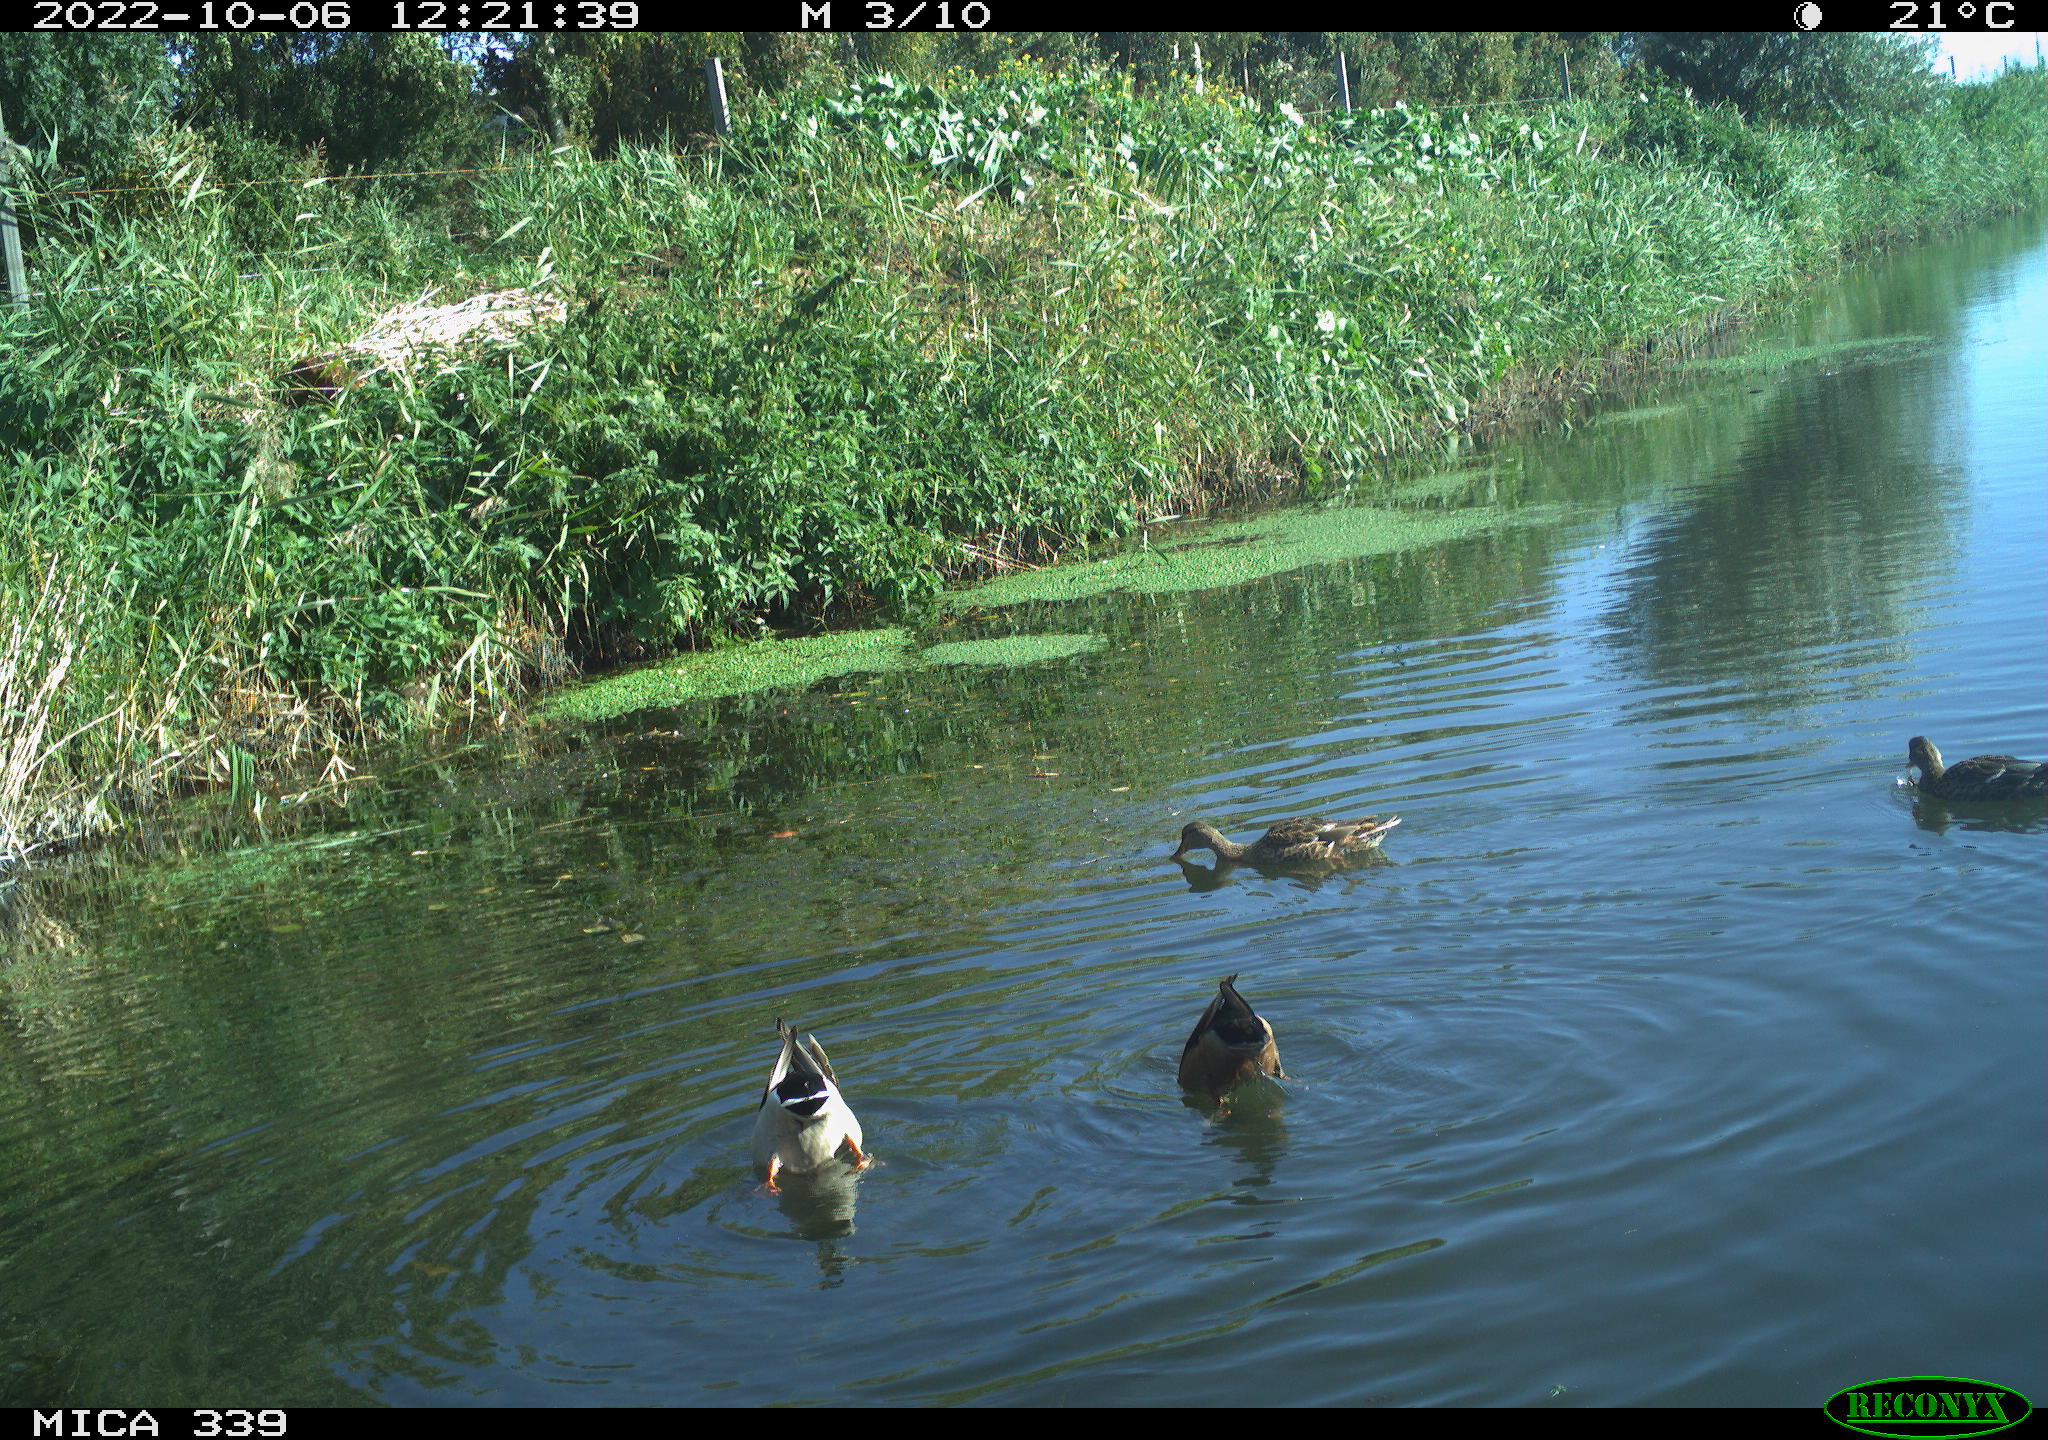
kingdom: Animalia
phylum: Chordata
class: Aves
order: Anseriformes
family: Anatidae
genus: Anas
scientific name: Anas platyrhynchos
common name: Mallard
